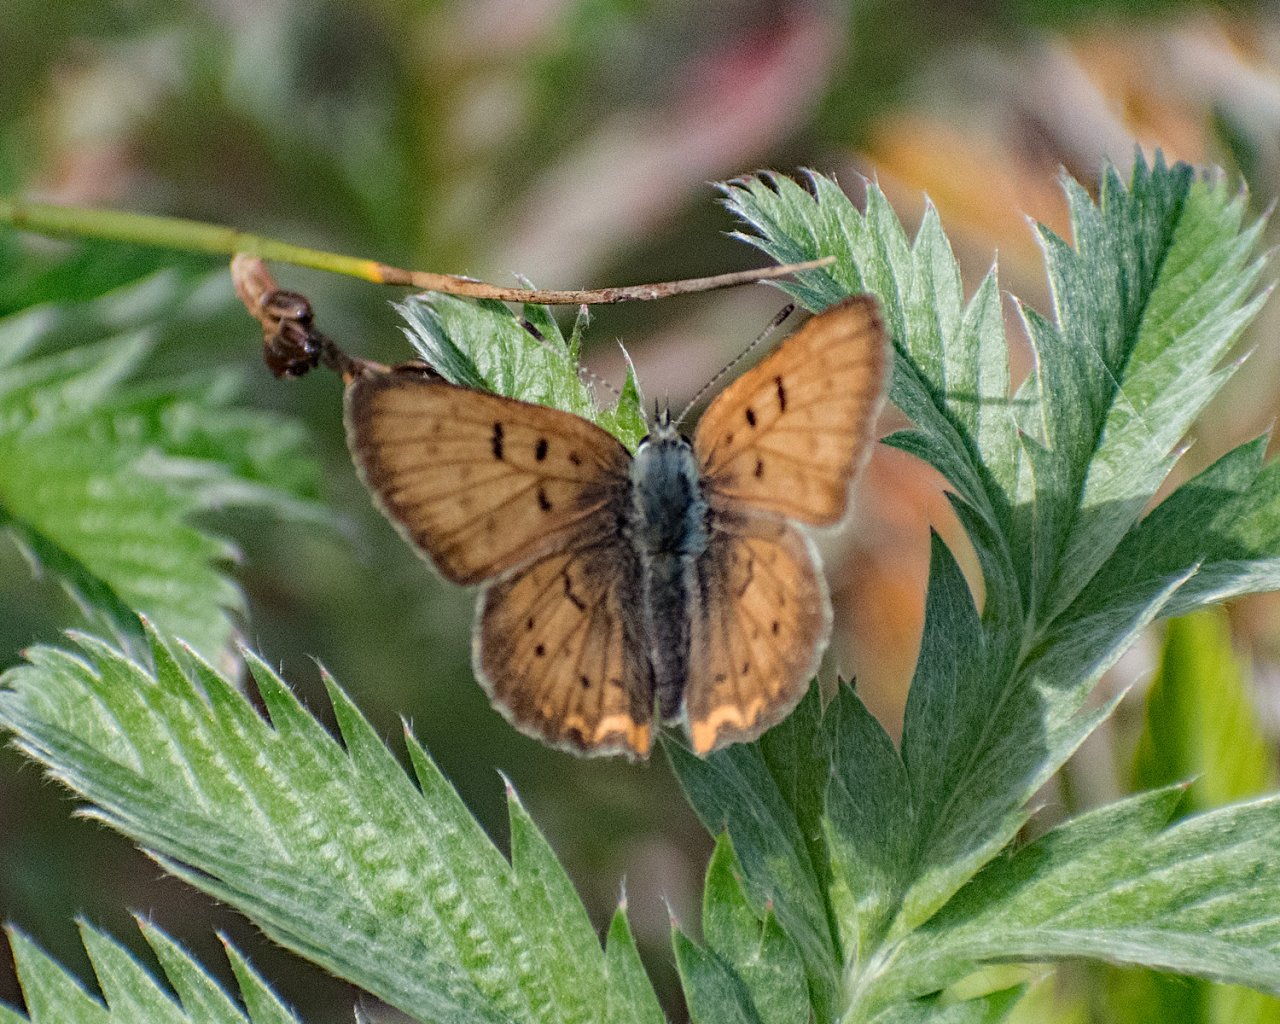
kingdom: Animalia
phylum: Arthropoda
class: Insecta
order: Lepidoptera
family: Sesiidae
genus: Sesia
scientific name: Sesia Lycaena helloides
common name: Purplish Copper
